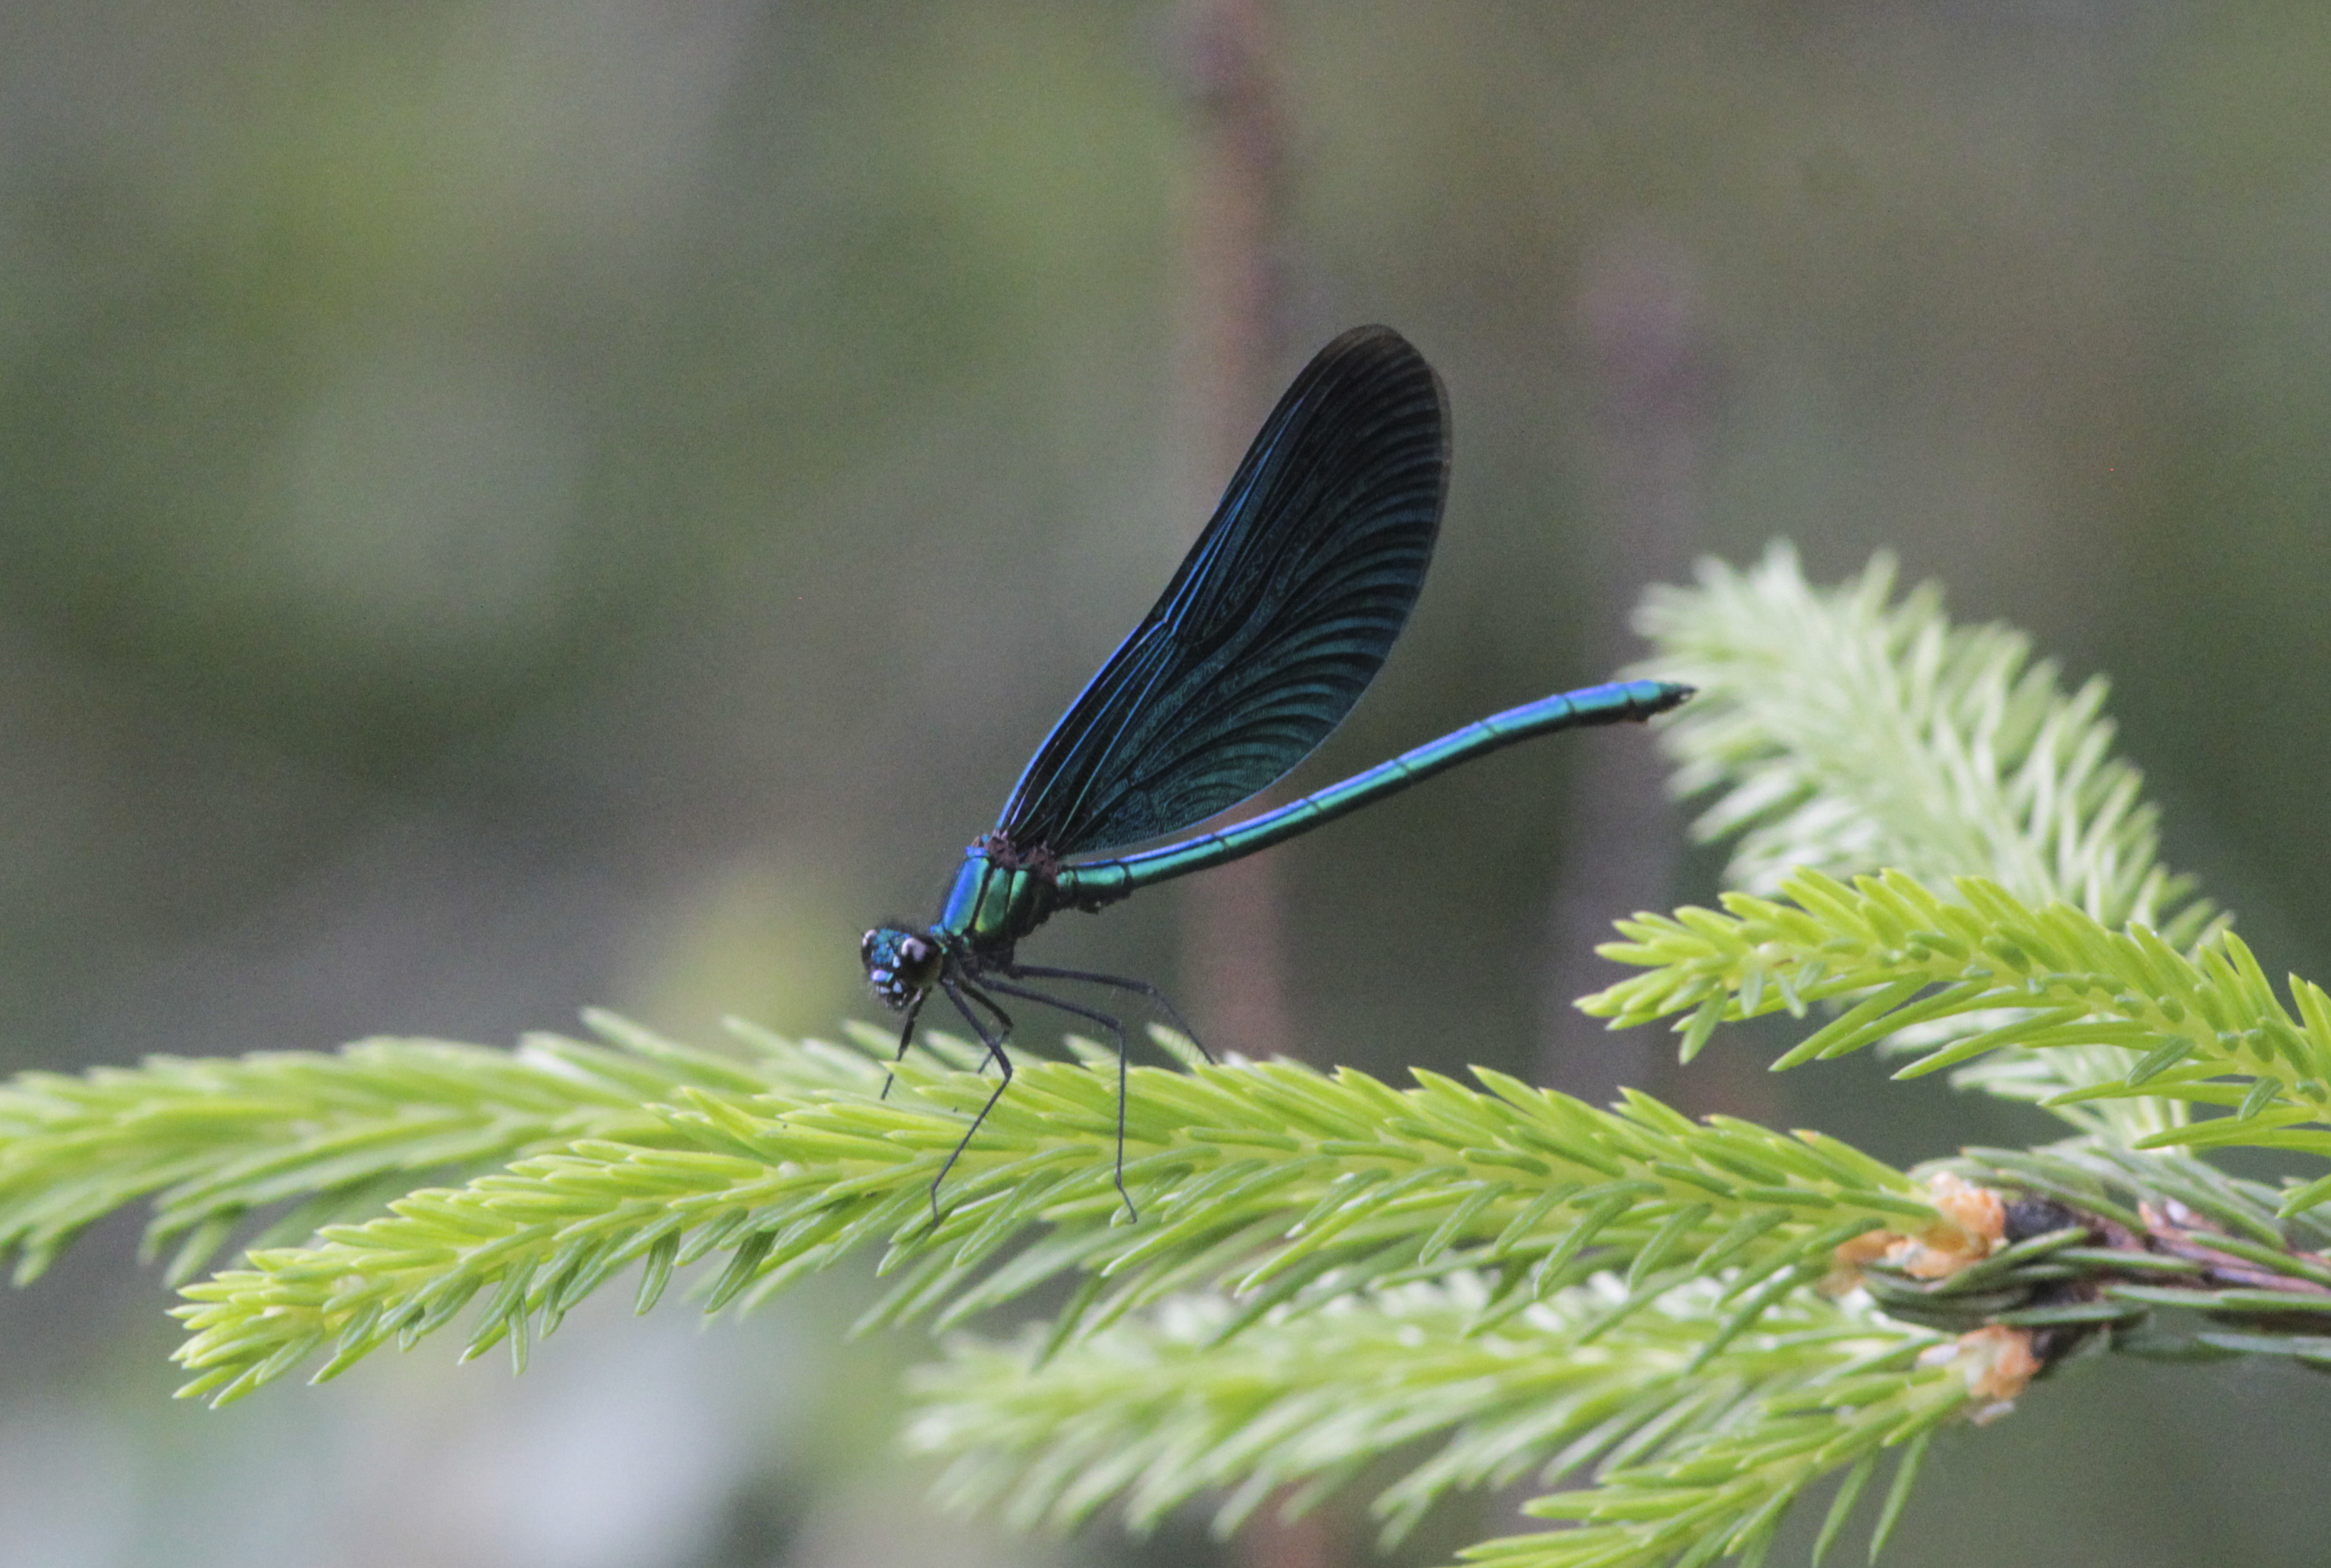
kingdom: Animalia
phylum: Arthropoda
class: Insecta
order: Odonata
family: Calopterygidae
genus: Calopteryx
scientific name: Calopteryx virgo
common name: Beautiful demoiselle
